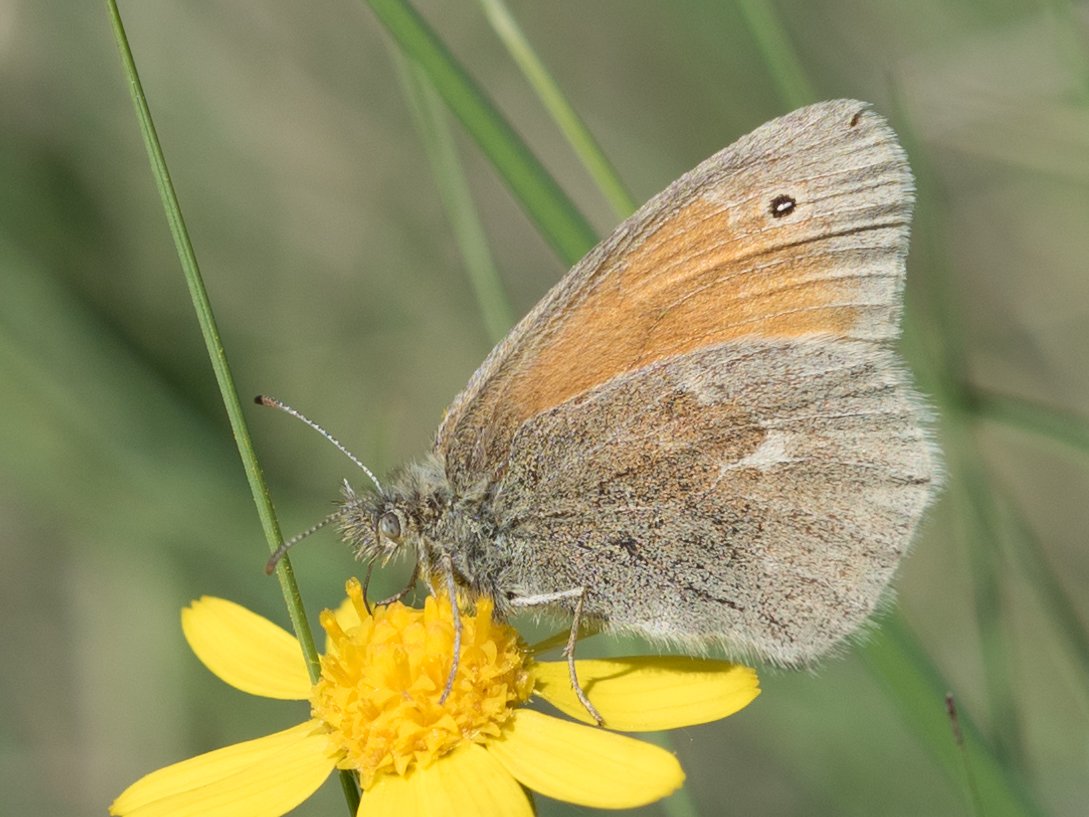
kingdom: Animalia
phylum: Arthropoda
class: Insecta
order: Lepidoptera
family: Nymphalidae
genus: Coenonympha
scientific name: Coenonympha tullia
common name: Large Heath
